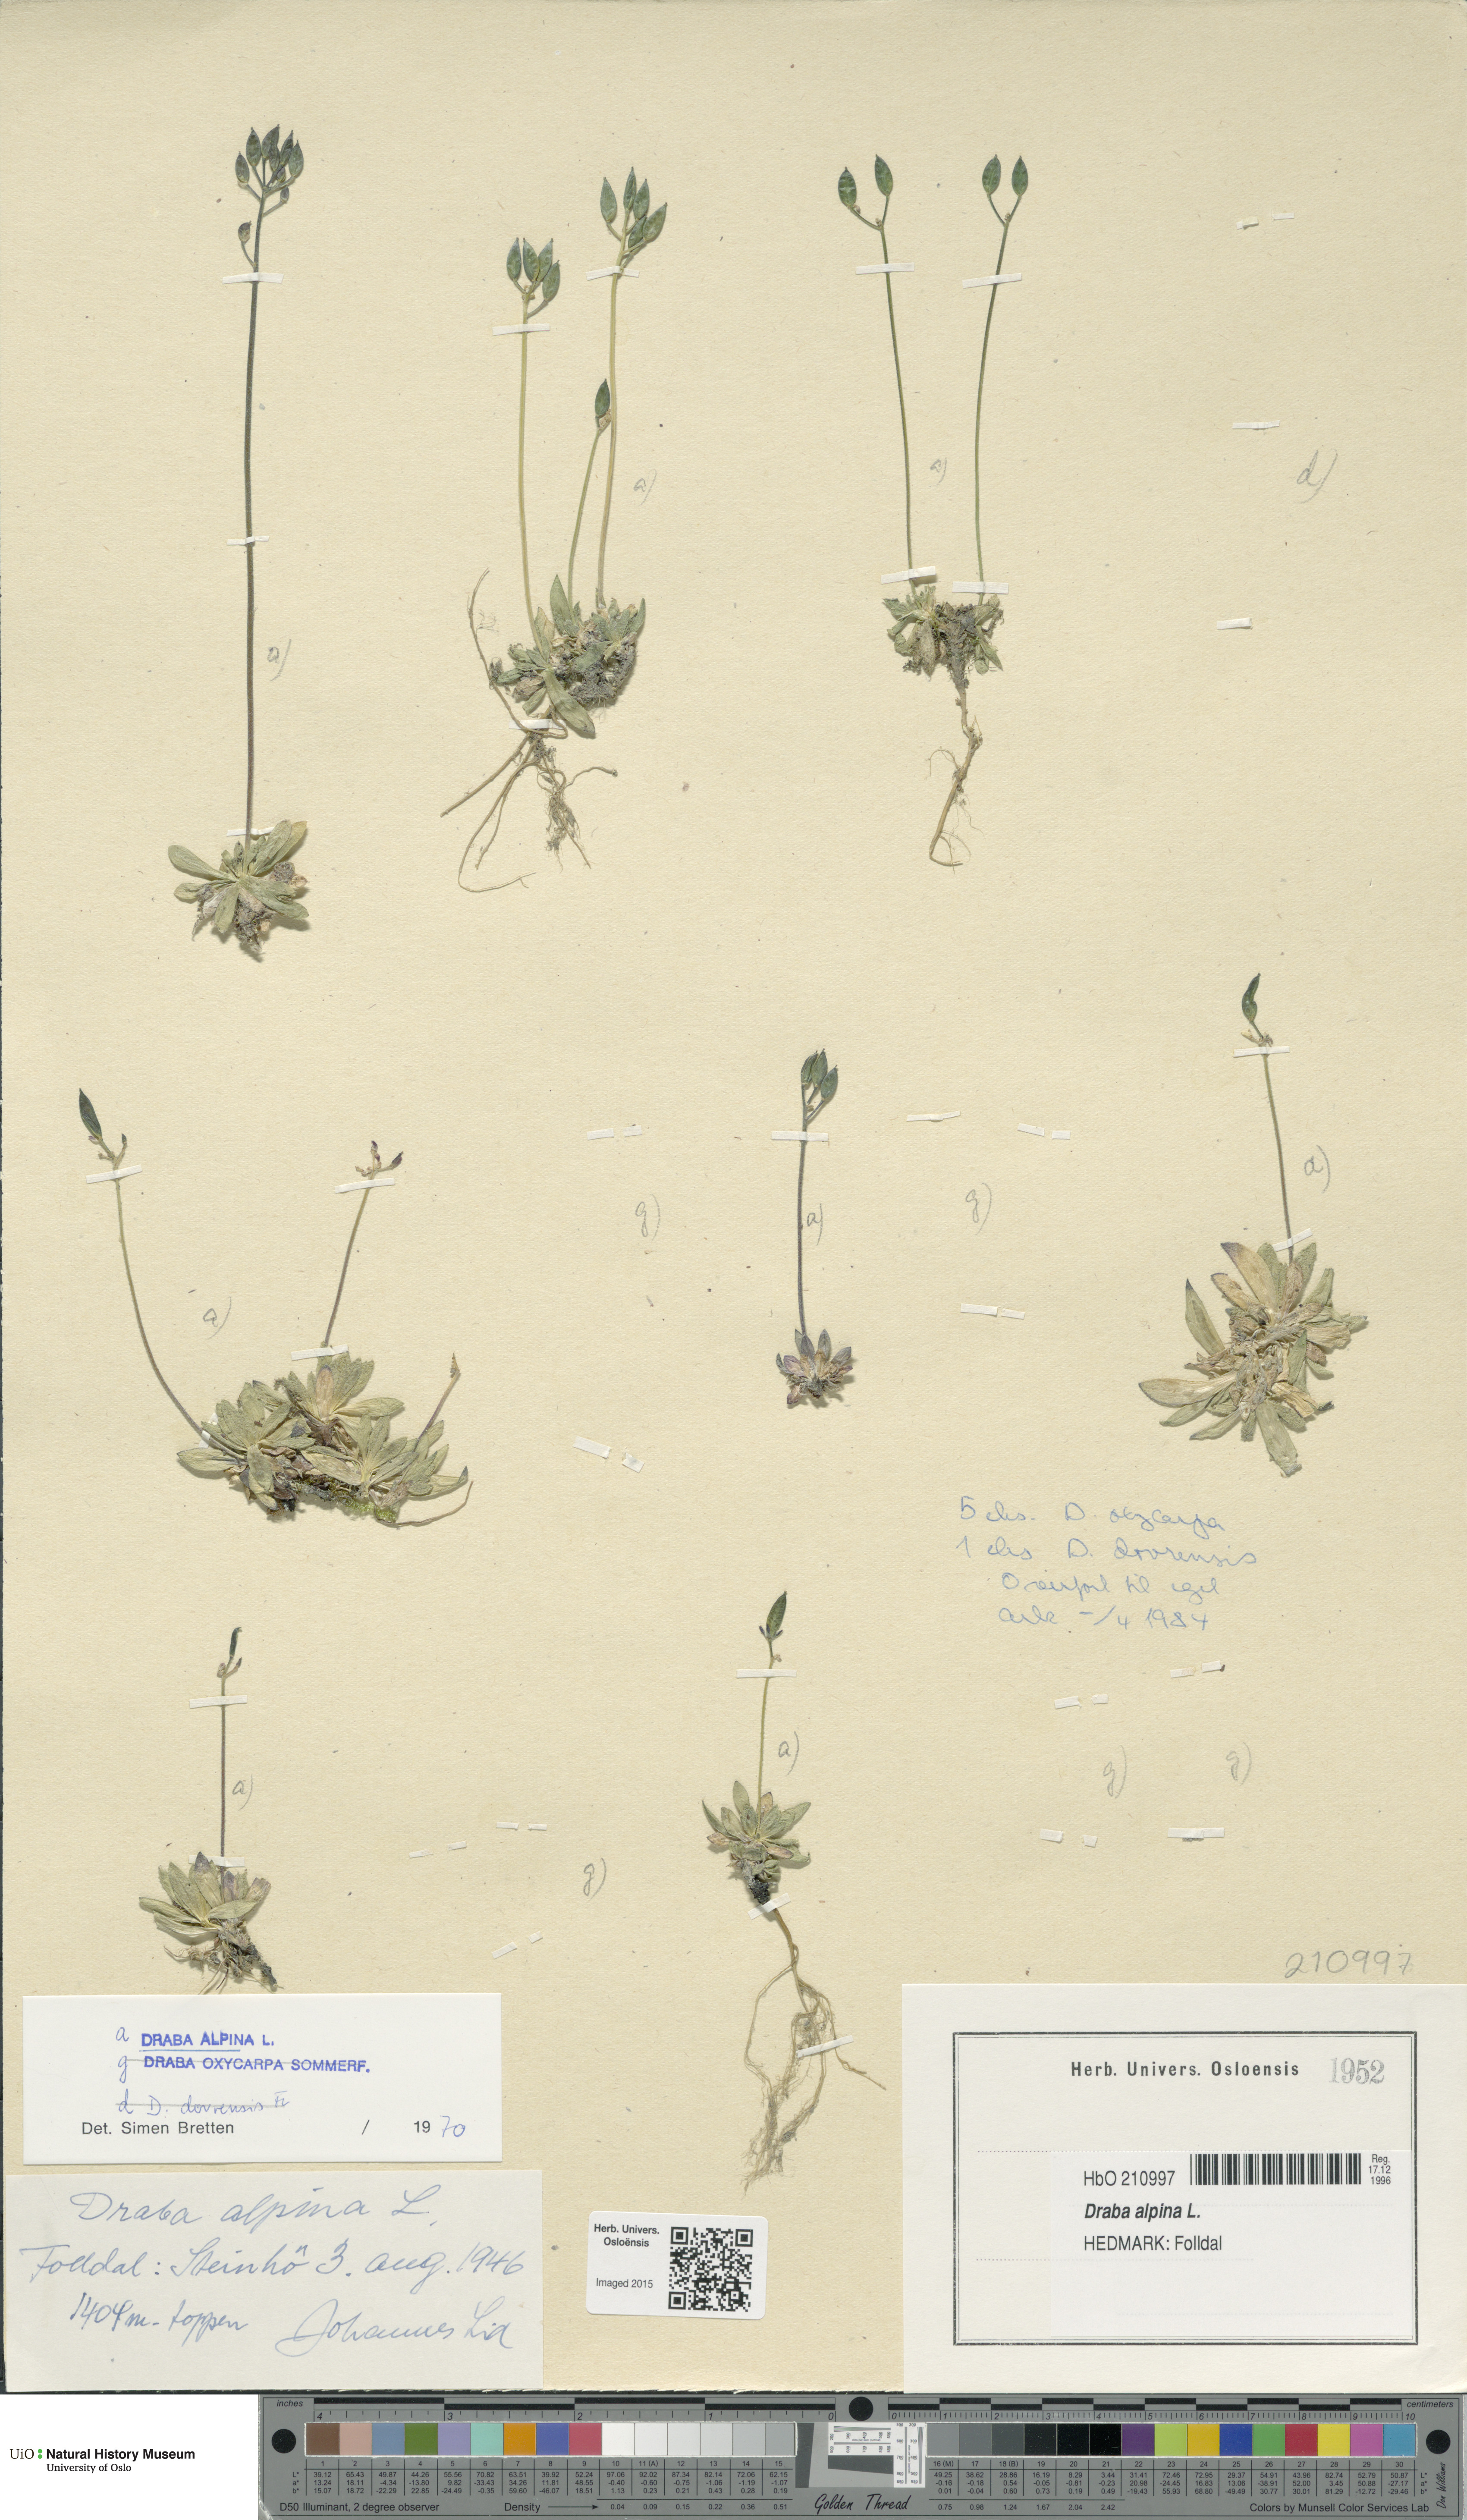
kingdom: Plantae
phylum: Tracheophyta
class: Magnoliopsida
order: Brassicales
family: Brassicaceae
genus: Draba
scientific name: Draba alpina
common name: Alpine draba
